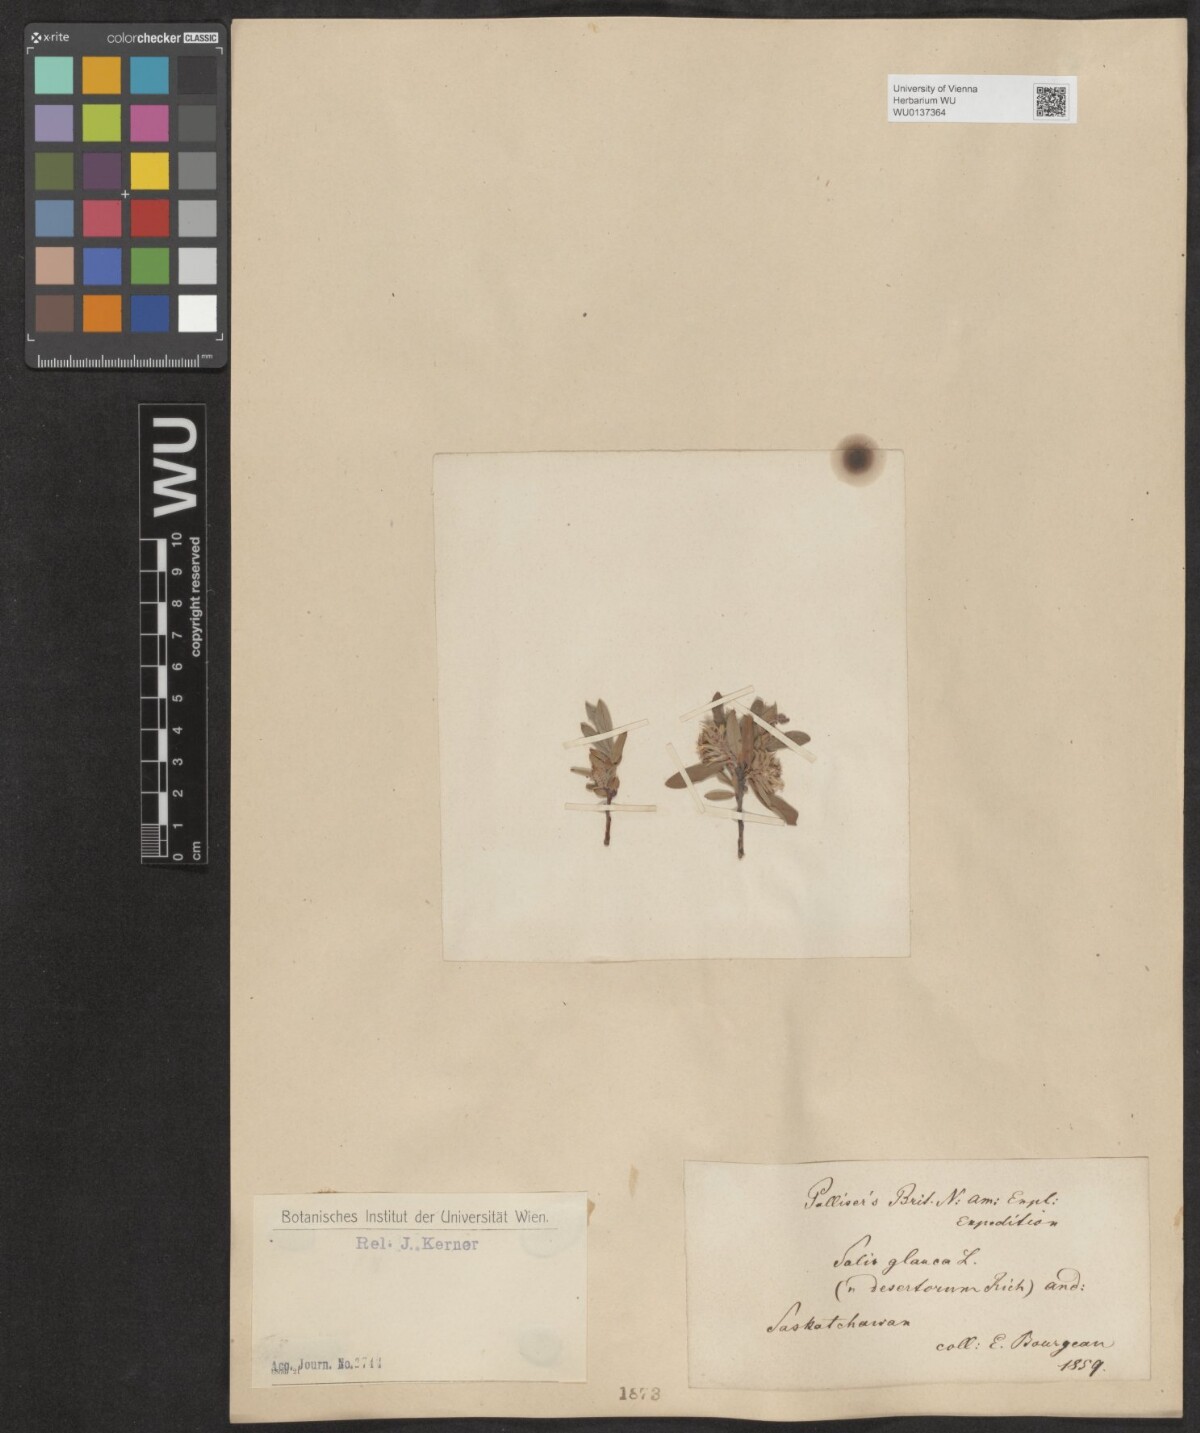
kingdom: Plantae
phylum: Tracheophyta
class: Magnoliopsida
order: Malpighiales
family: Salicaceae
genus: Salix
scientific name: Salix glauca
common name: Glaucous willow
